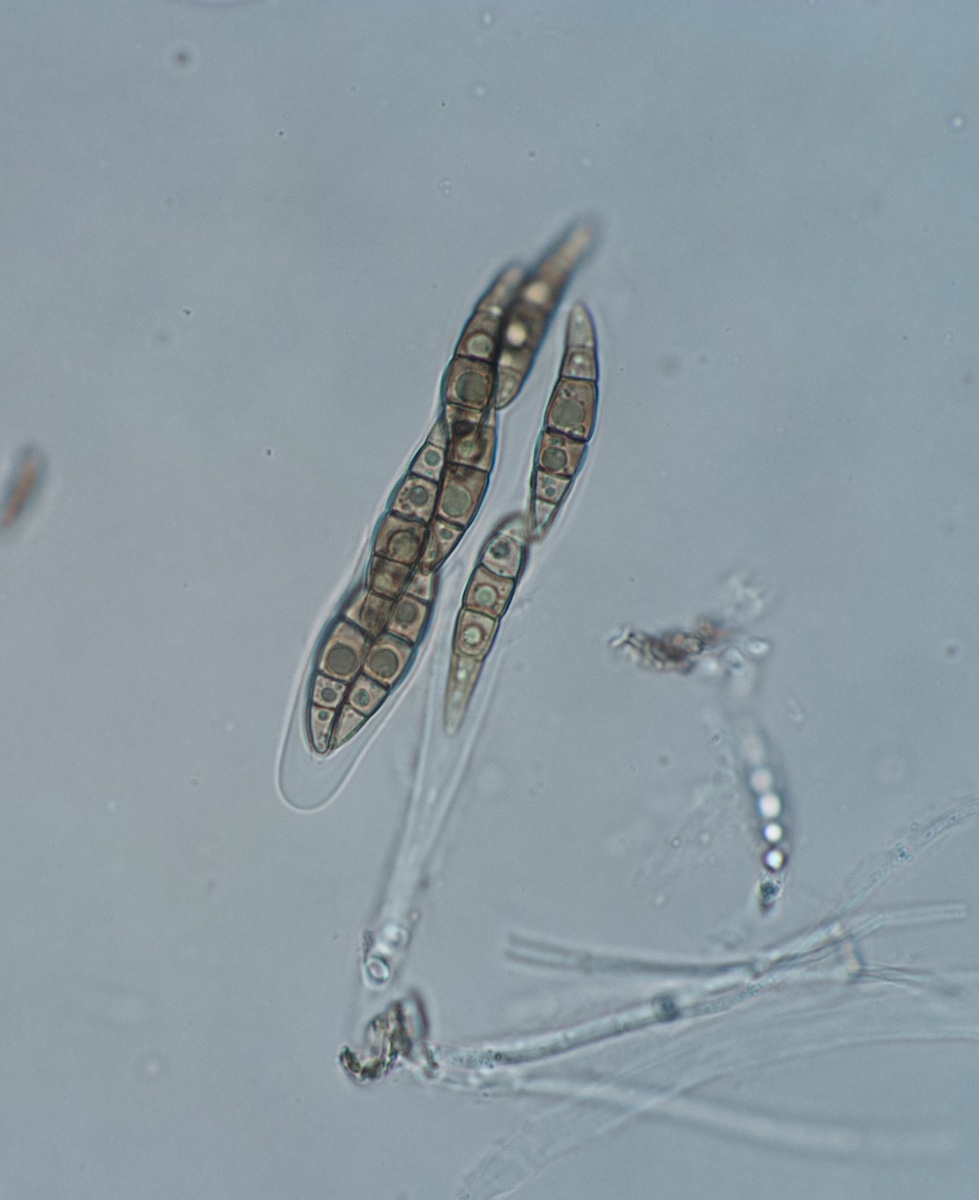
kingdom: Fungi
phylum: Ascomycota
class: Dothideomycetes
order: Pleosporales
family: Lophiostomataceae
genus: Sigarispora
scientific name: Sigarispora arundinis
